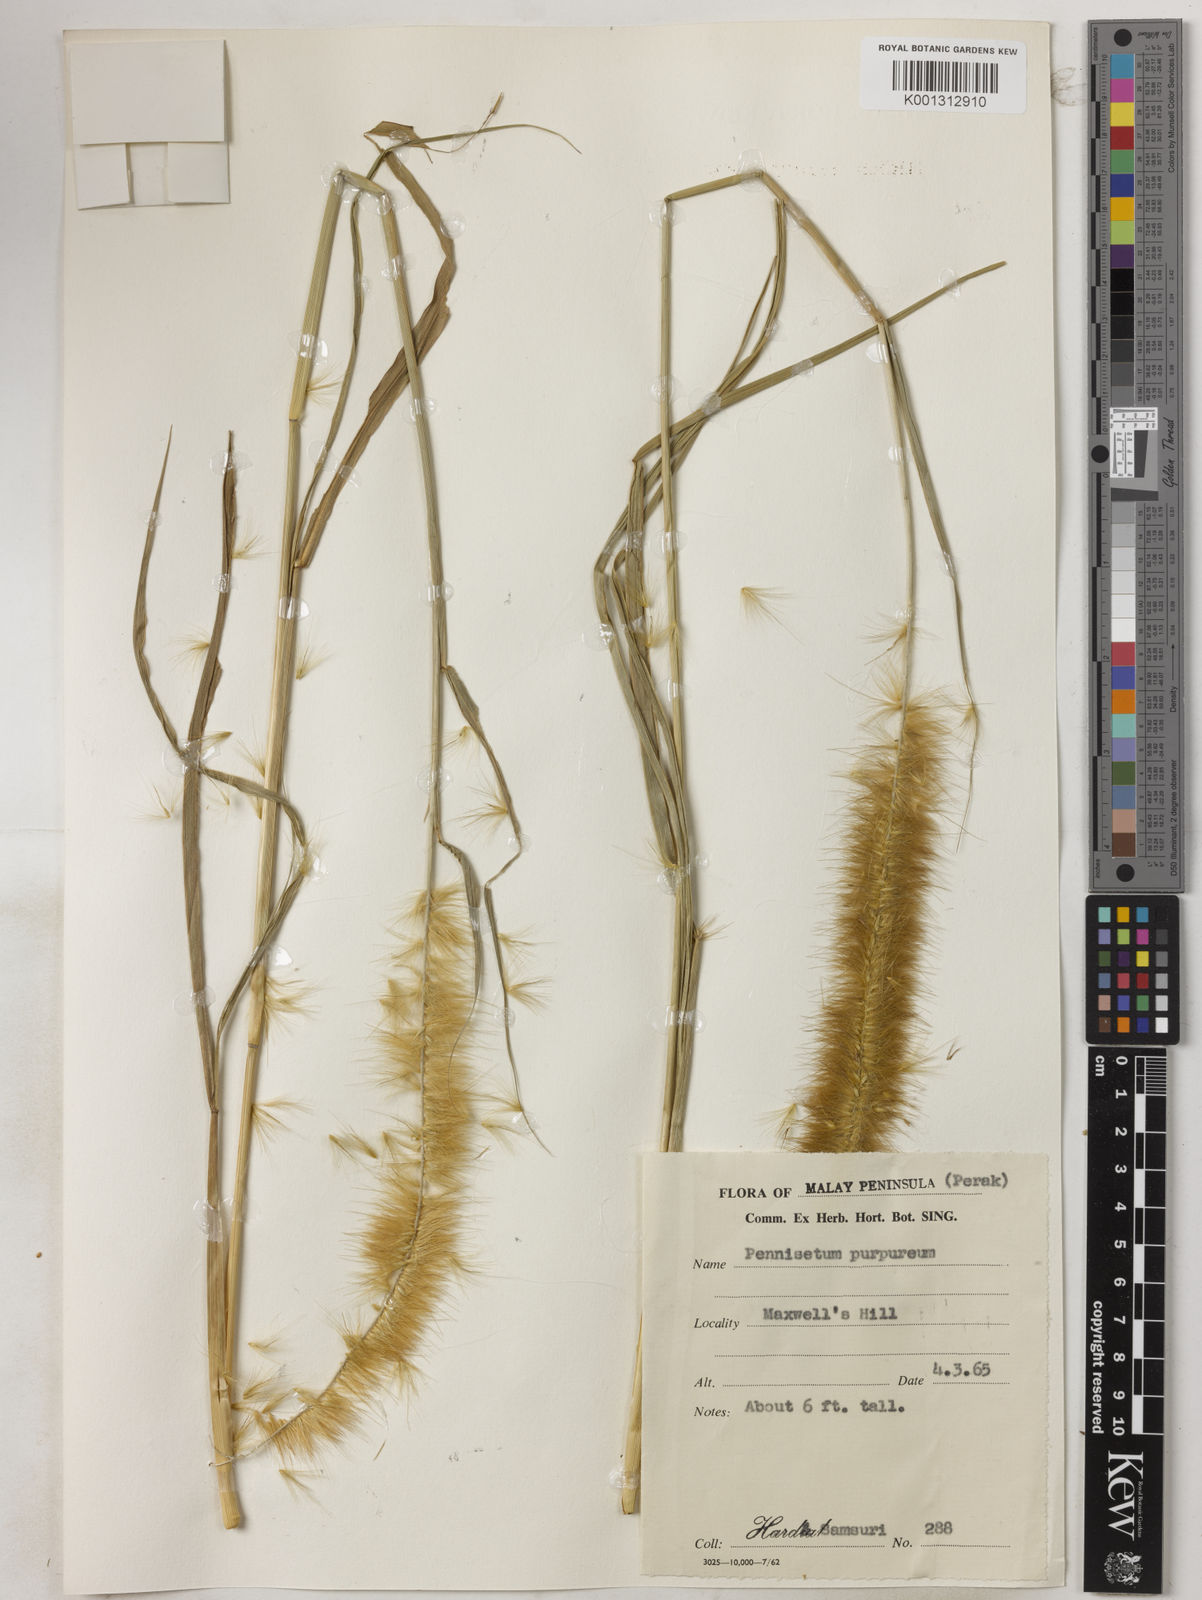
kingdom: Plantae
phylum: Tracheophyta
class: Liliopsida
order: Poales
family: Poaceae
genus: Cenchrus
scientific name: Cenchrus purpureus
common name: Elephant grass
